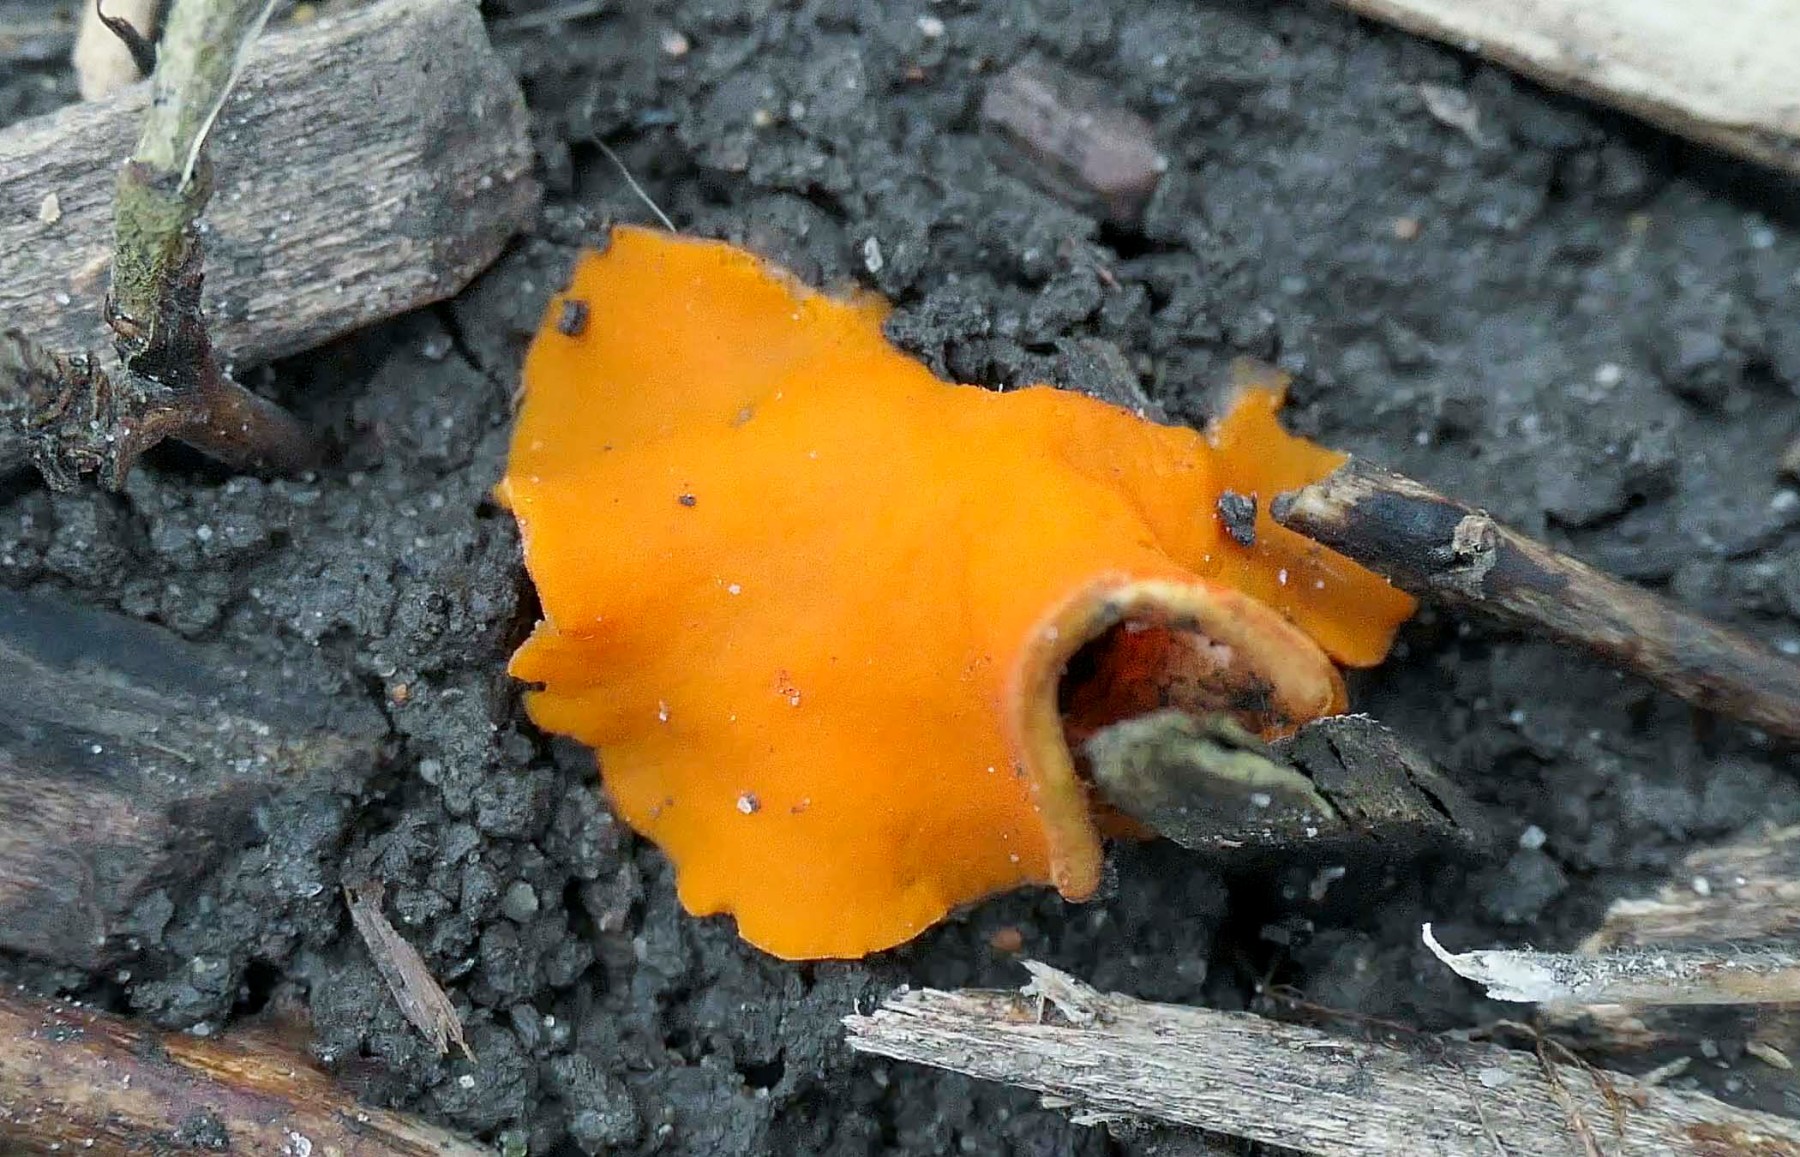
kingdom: Fungi
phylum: Ascomycota
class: Pezizomycetes
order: Pezizales
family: Pyronemataceae
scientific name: Pyronemataceae
